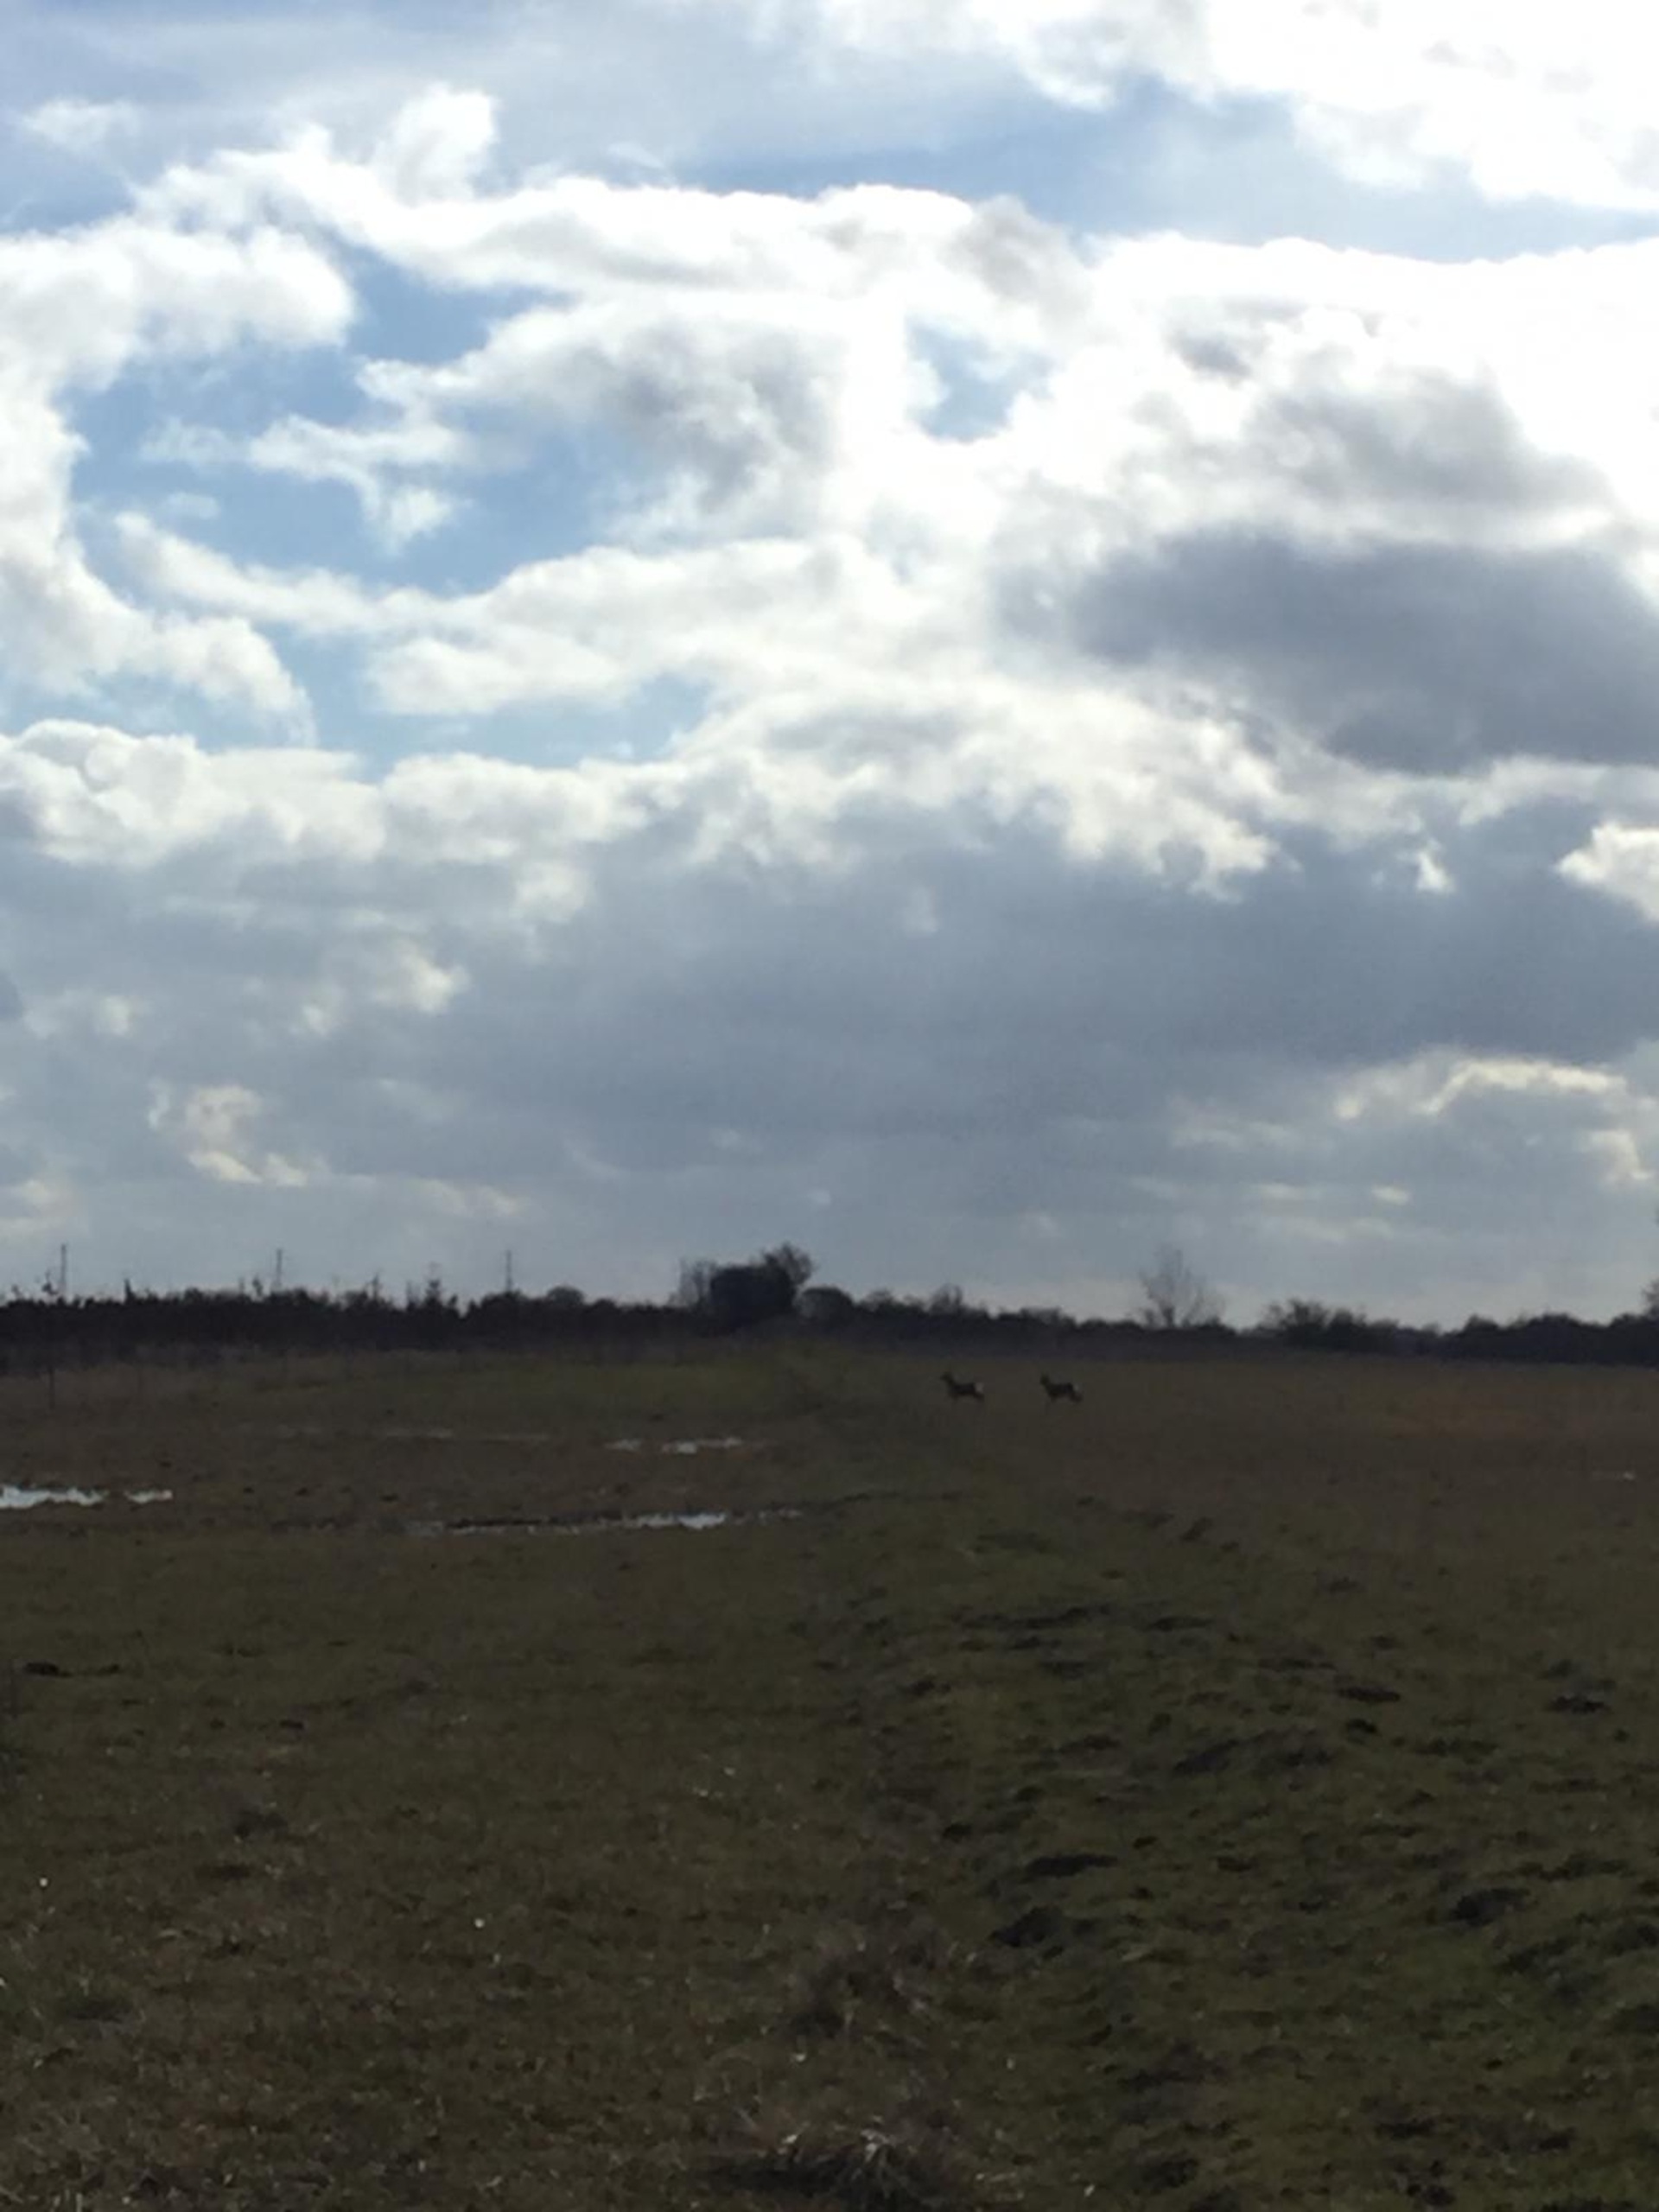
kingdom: Animalia
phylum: Chordata
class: Mammalia
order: Artiodactyla
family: Cervidae
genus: Capreolus
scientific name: Capreolus capreolus
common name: Rådyr
